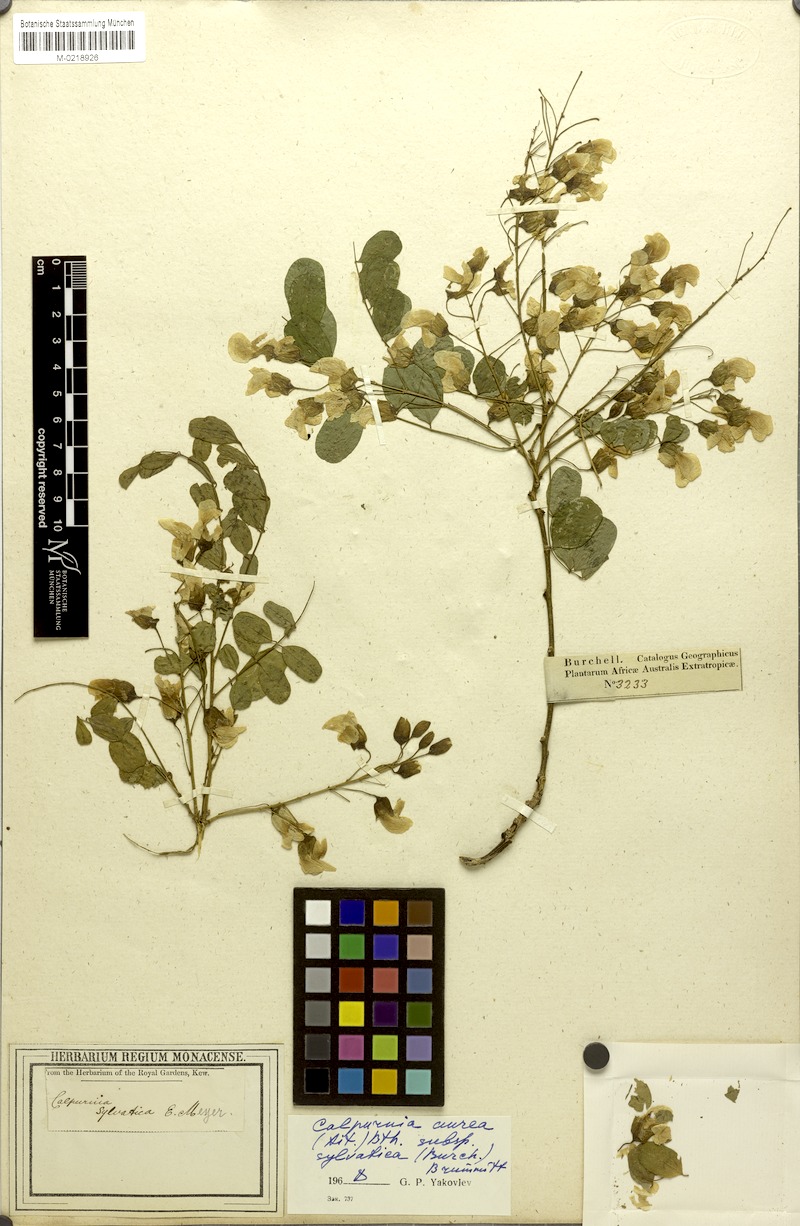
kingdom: Plantae
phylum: Tracheophyta
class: Magnoliopsida
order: Fabales
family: Fabaceae
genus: Calpurnia
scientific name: Calpurnia aurea
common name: Wild laburnum
